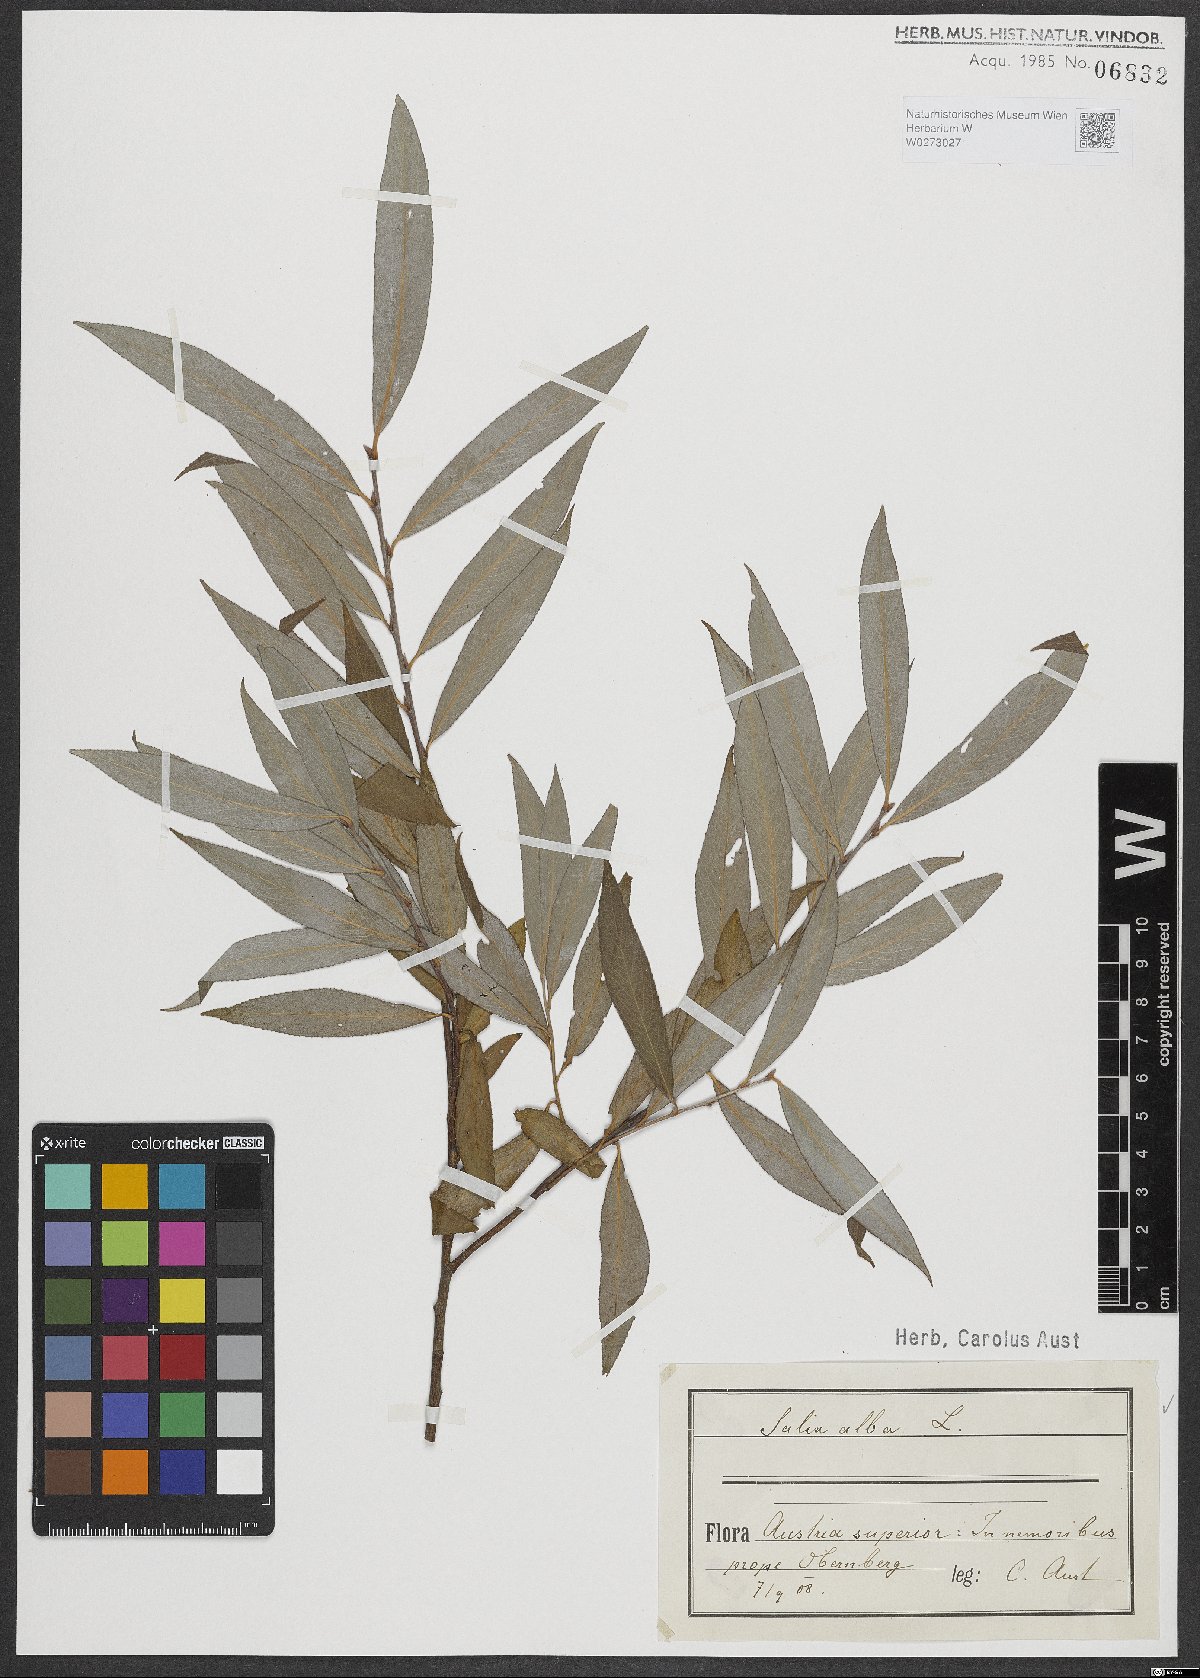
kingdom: Plantae
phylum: Tracheophyta
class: Magnoliopsida
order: Malpighiales
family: Salicaceae
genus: Salix
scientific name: Salix alba
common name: White willow
